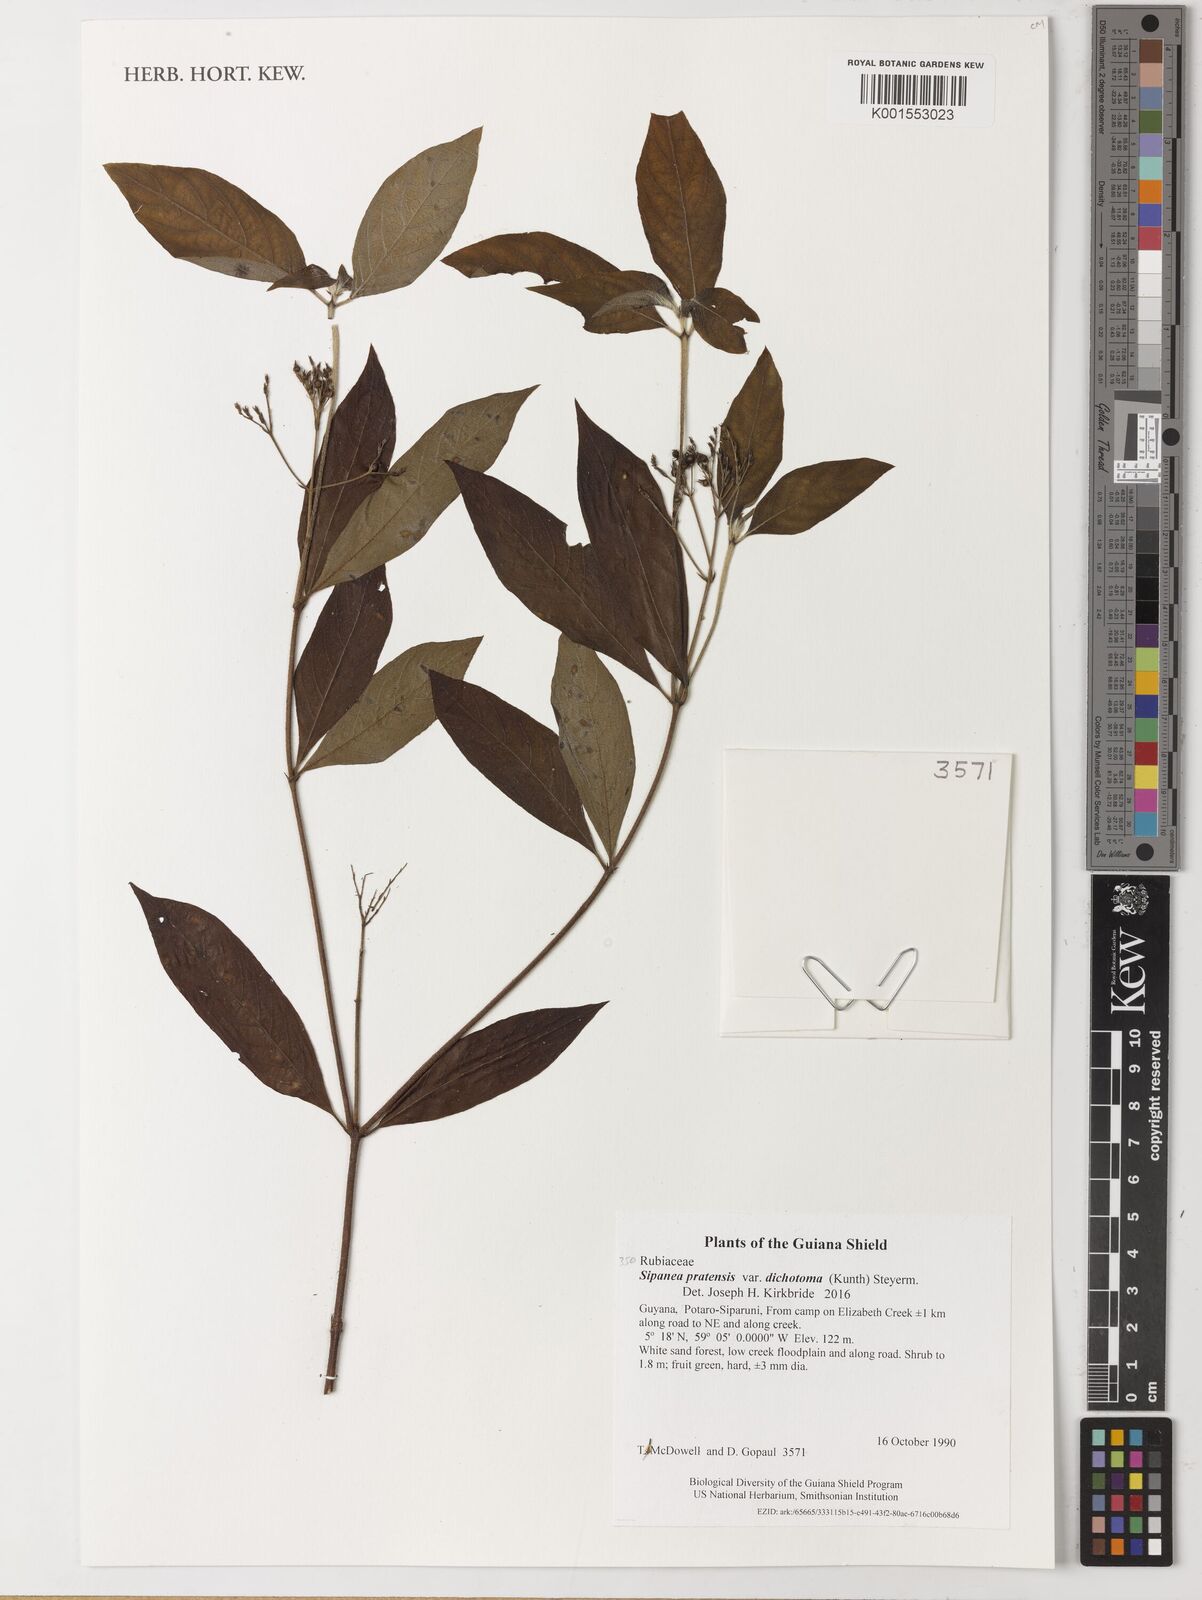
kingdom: Plantae
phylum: Tracheophyta
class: Magnoliopsida
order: Gentianales
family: Rubiaceae
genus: Sipanea
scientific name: Sipanea pratensis
